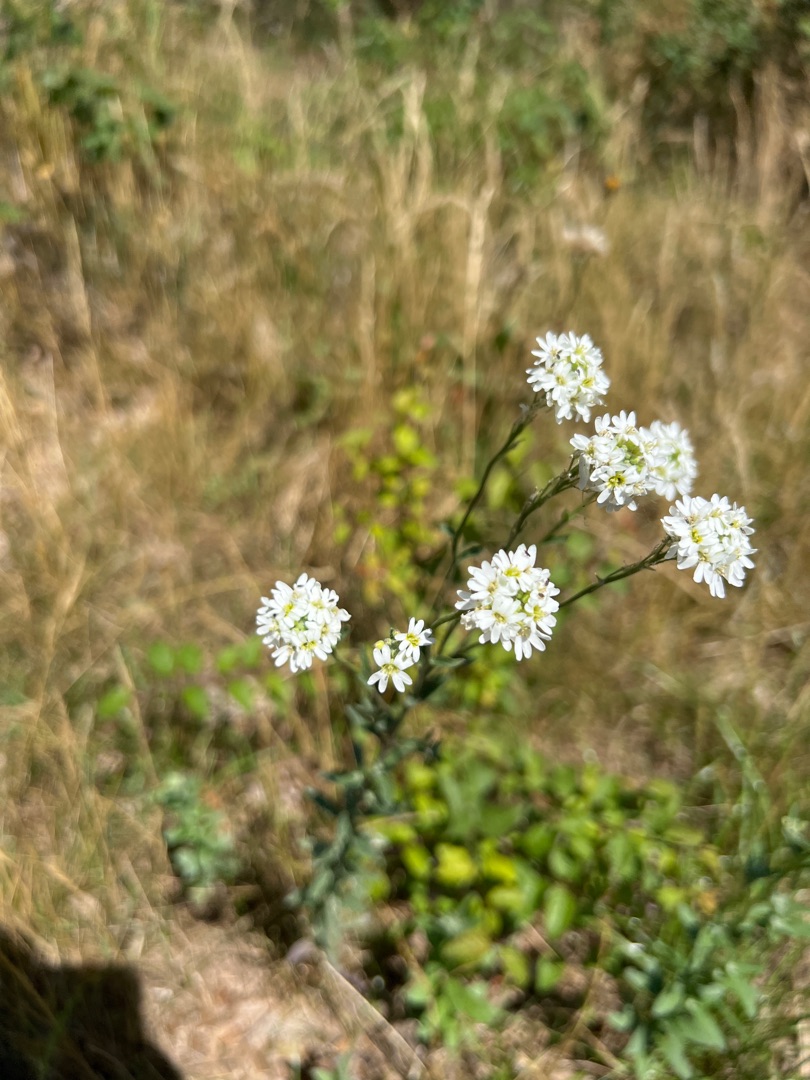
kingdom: Plantae
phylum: Tracheophyta
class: Magnoliopsida
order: Brassicales
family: Brassicaceae
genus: Berteroa
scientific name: Berteroa incana
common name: Kløvplade
